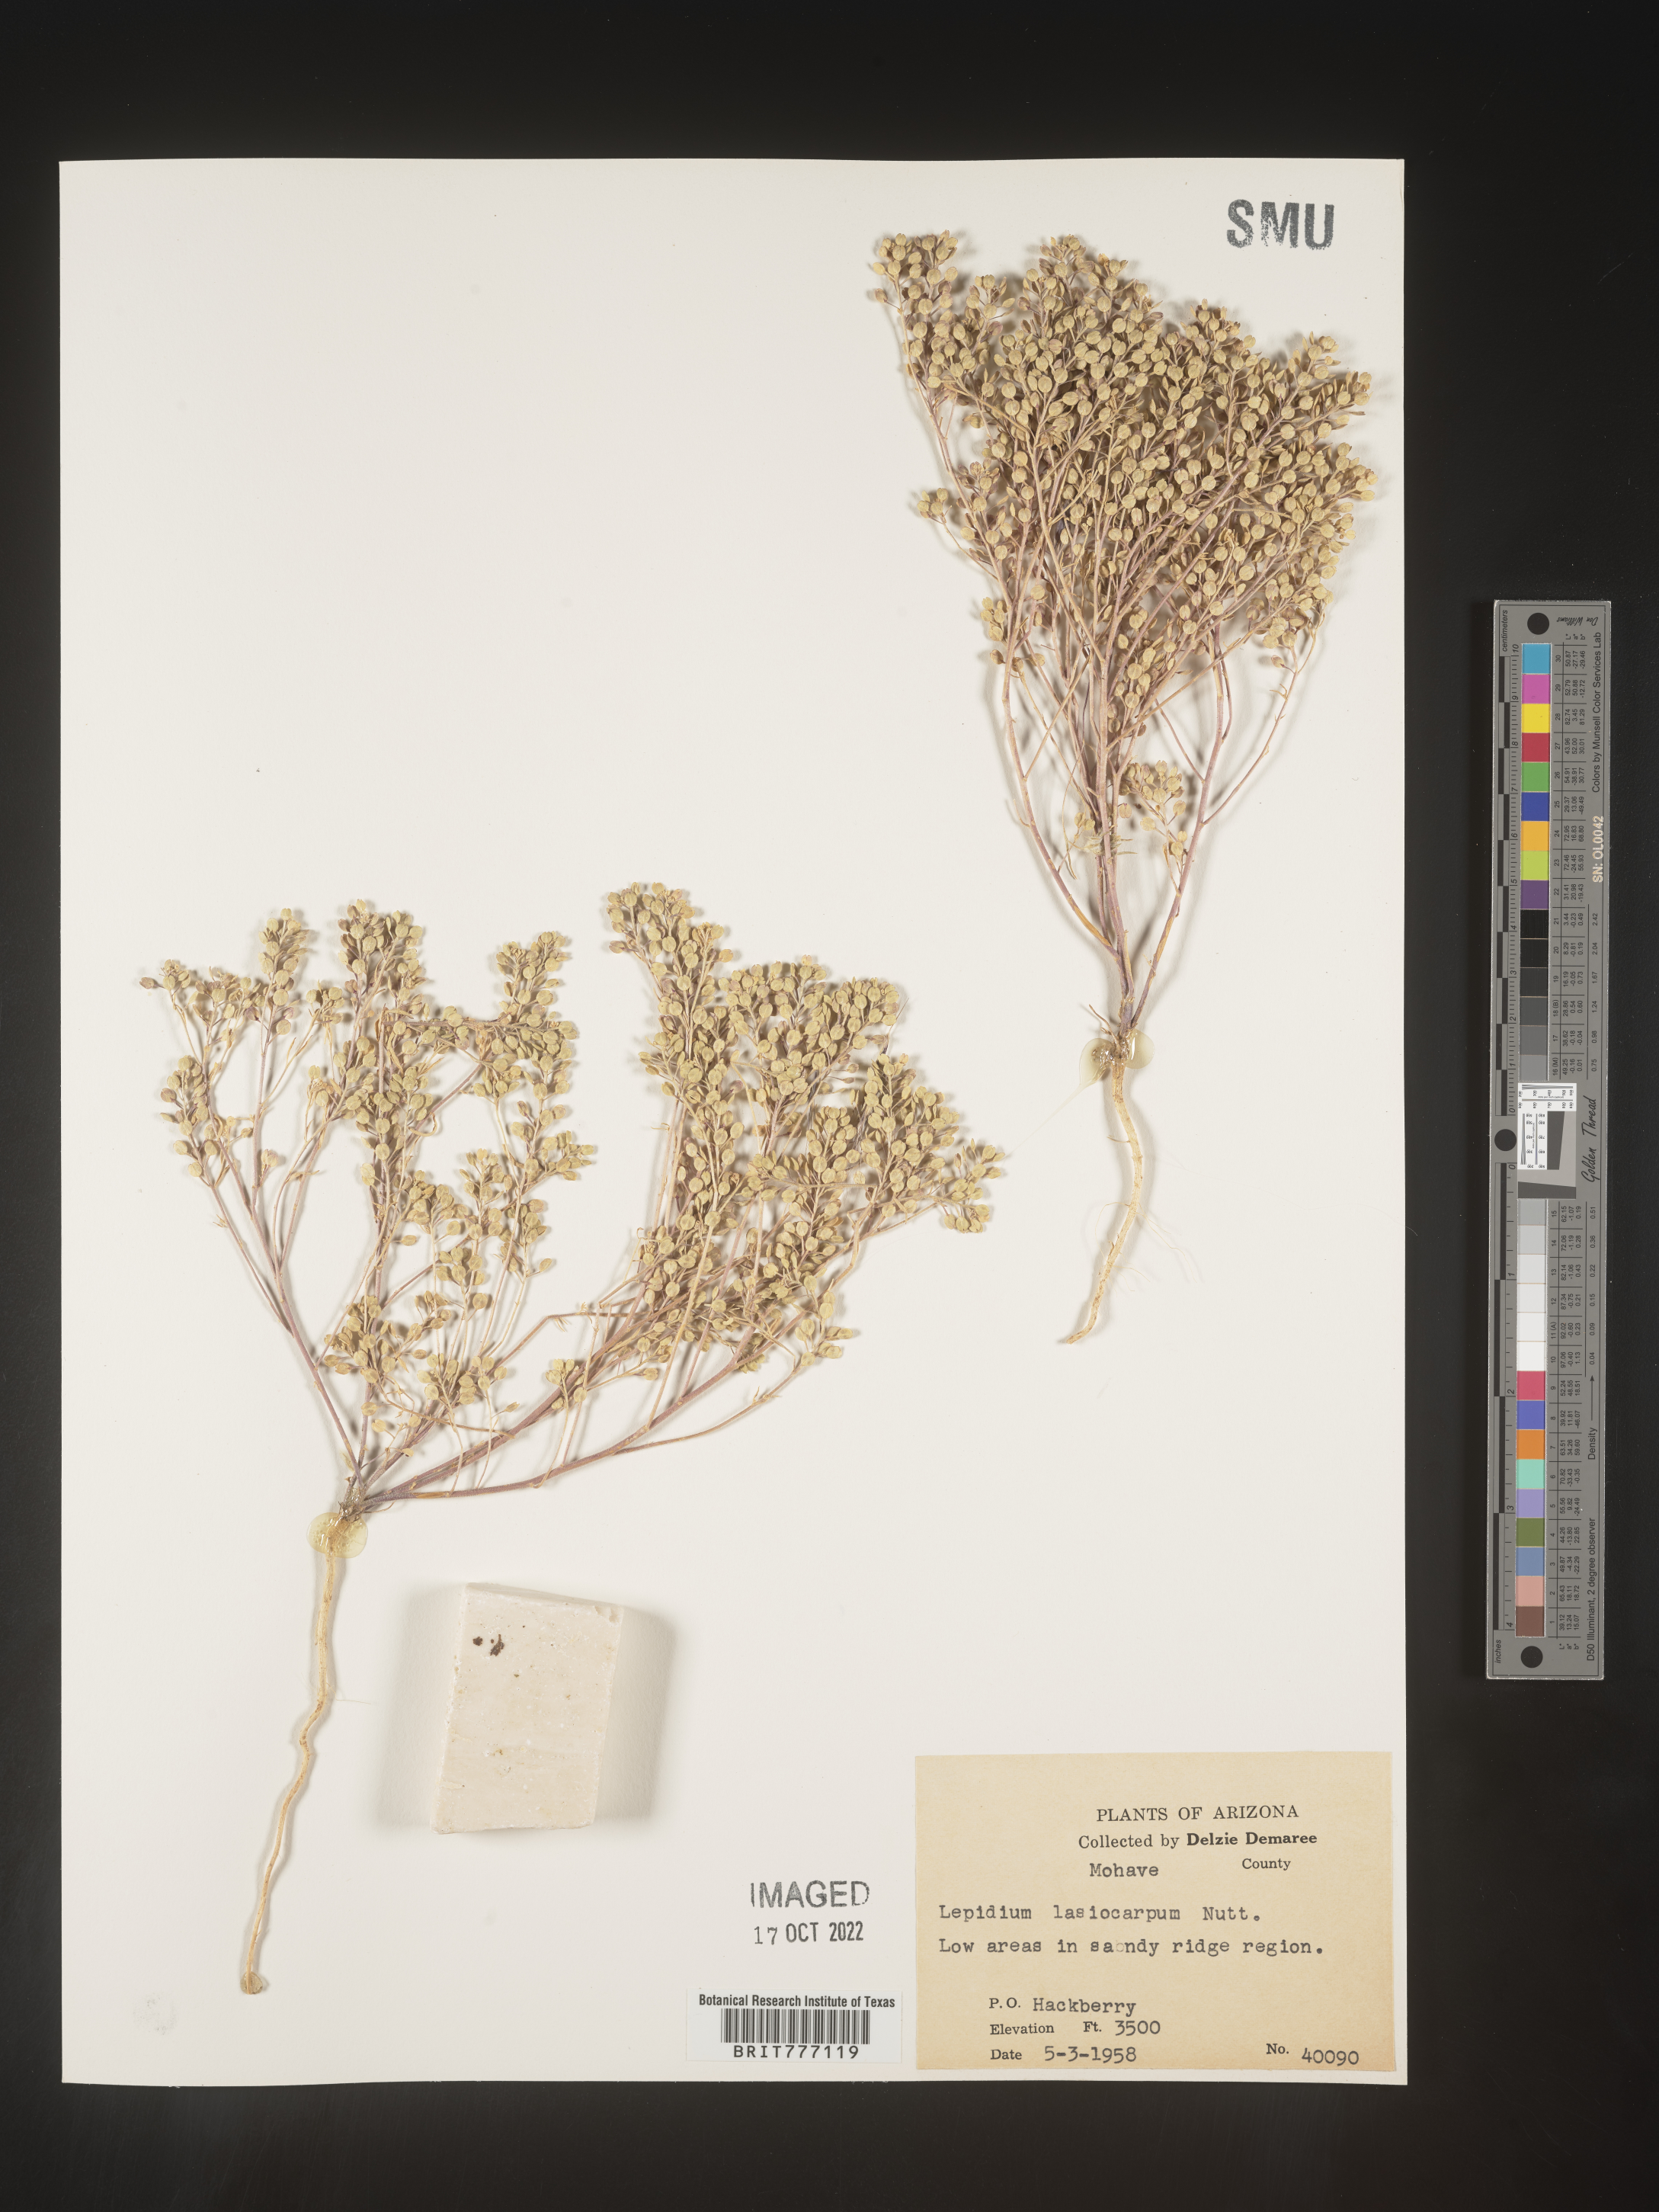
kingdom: Plantae
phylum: Tracheophyta
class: Magnoliopsida
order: Brassicales
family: Brassicaceae
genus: Lepidium
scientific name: Lepidium
